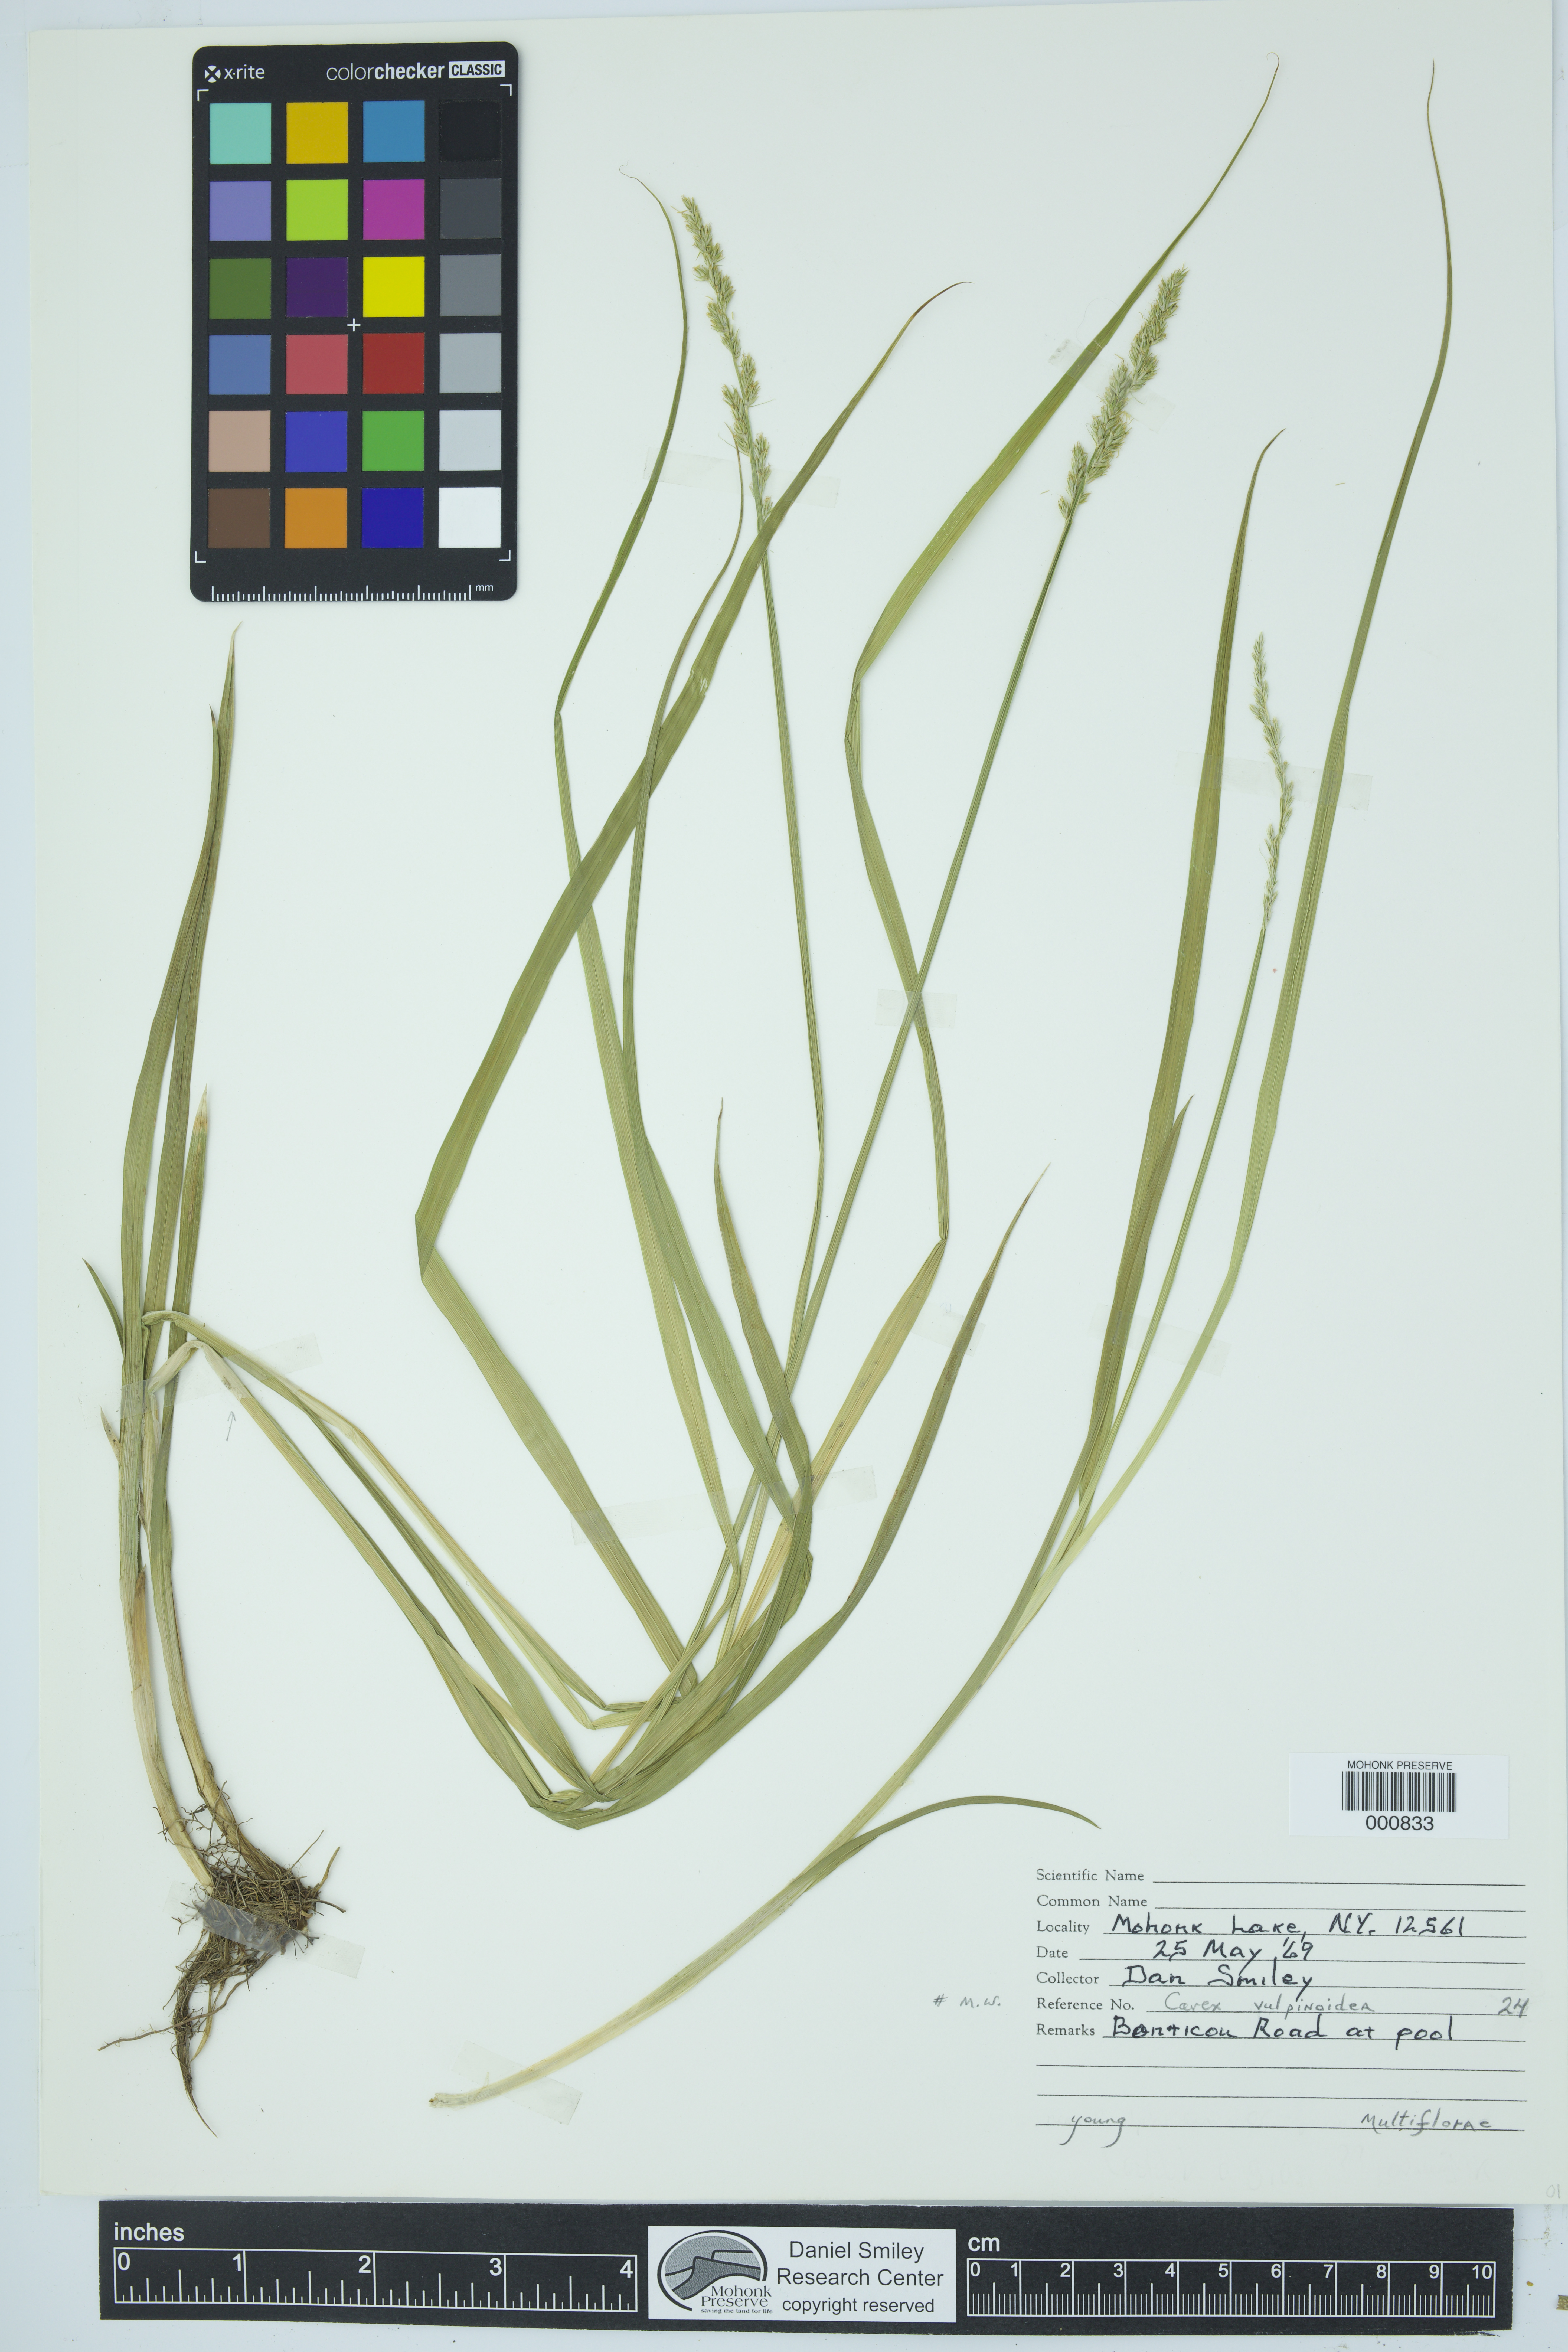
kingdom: Plantae
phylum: Tracheophyta
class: Liliopsida
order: Poales
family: Cyperaceae
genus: Carex
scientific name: Carex vulpinoidea
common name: American fox-sedge
